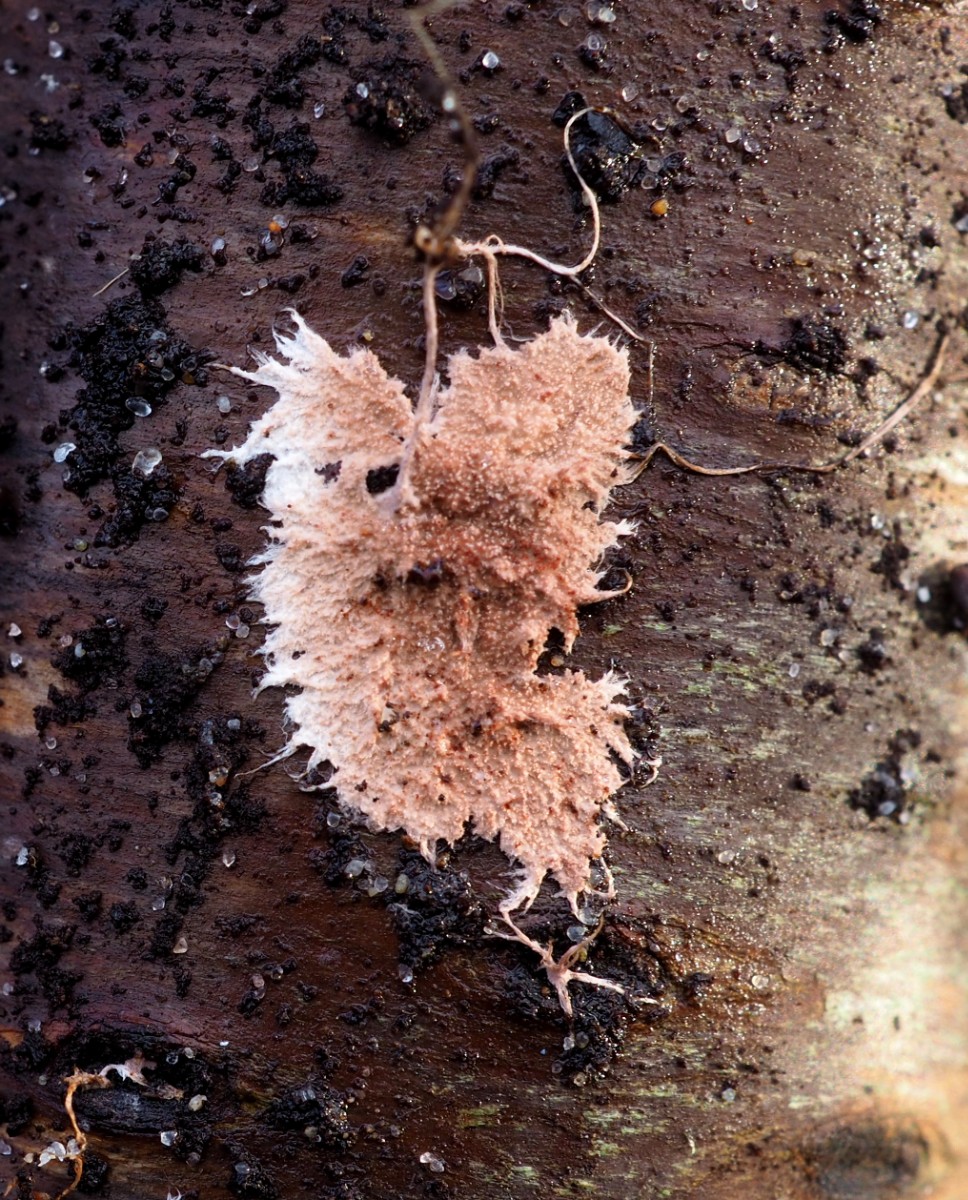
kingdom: Fungi
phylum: Basidiomycota
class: Agaricomycetes
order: Polyporales
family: Steccherinaceae
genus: Steccherinum
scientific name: Steccherinum fimbriatum
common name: trådet skønpig
